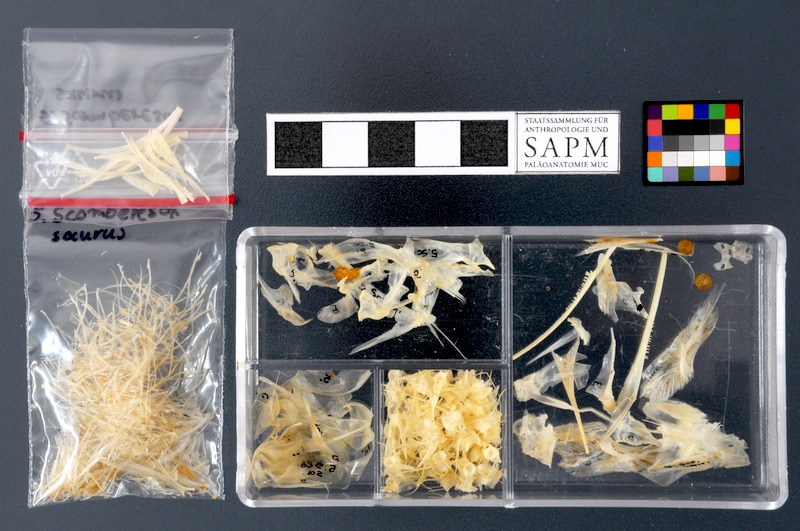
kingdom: Animalia
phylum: Chordata
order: Beloniformes
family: Scomberesocidae
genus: Scomberesox
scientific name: Scomberesox saurus
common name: Skipper
